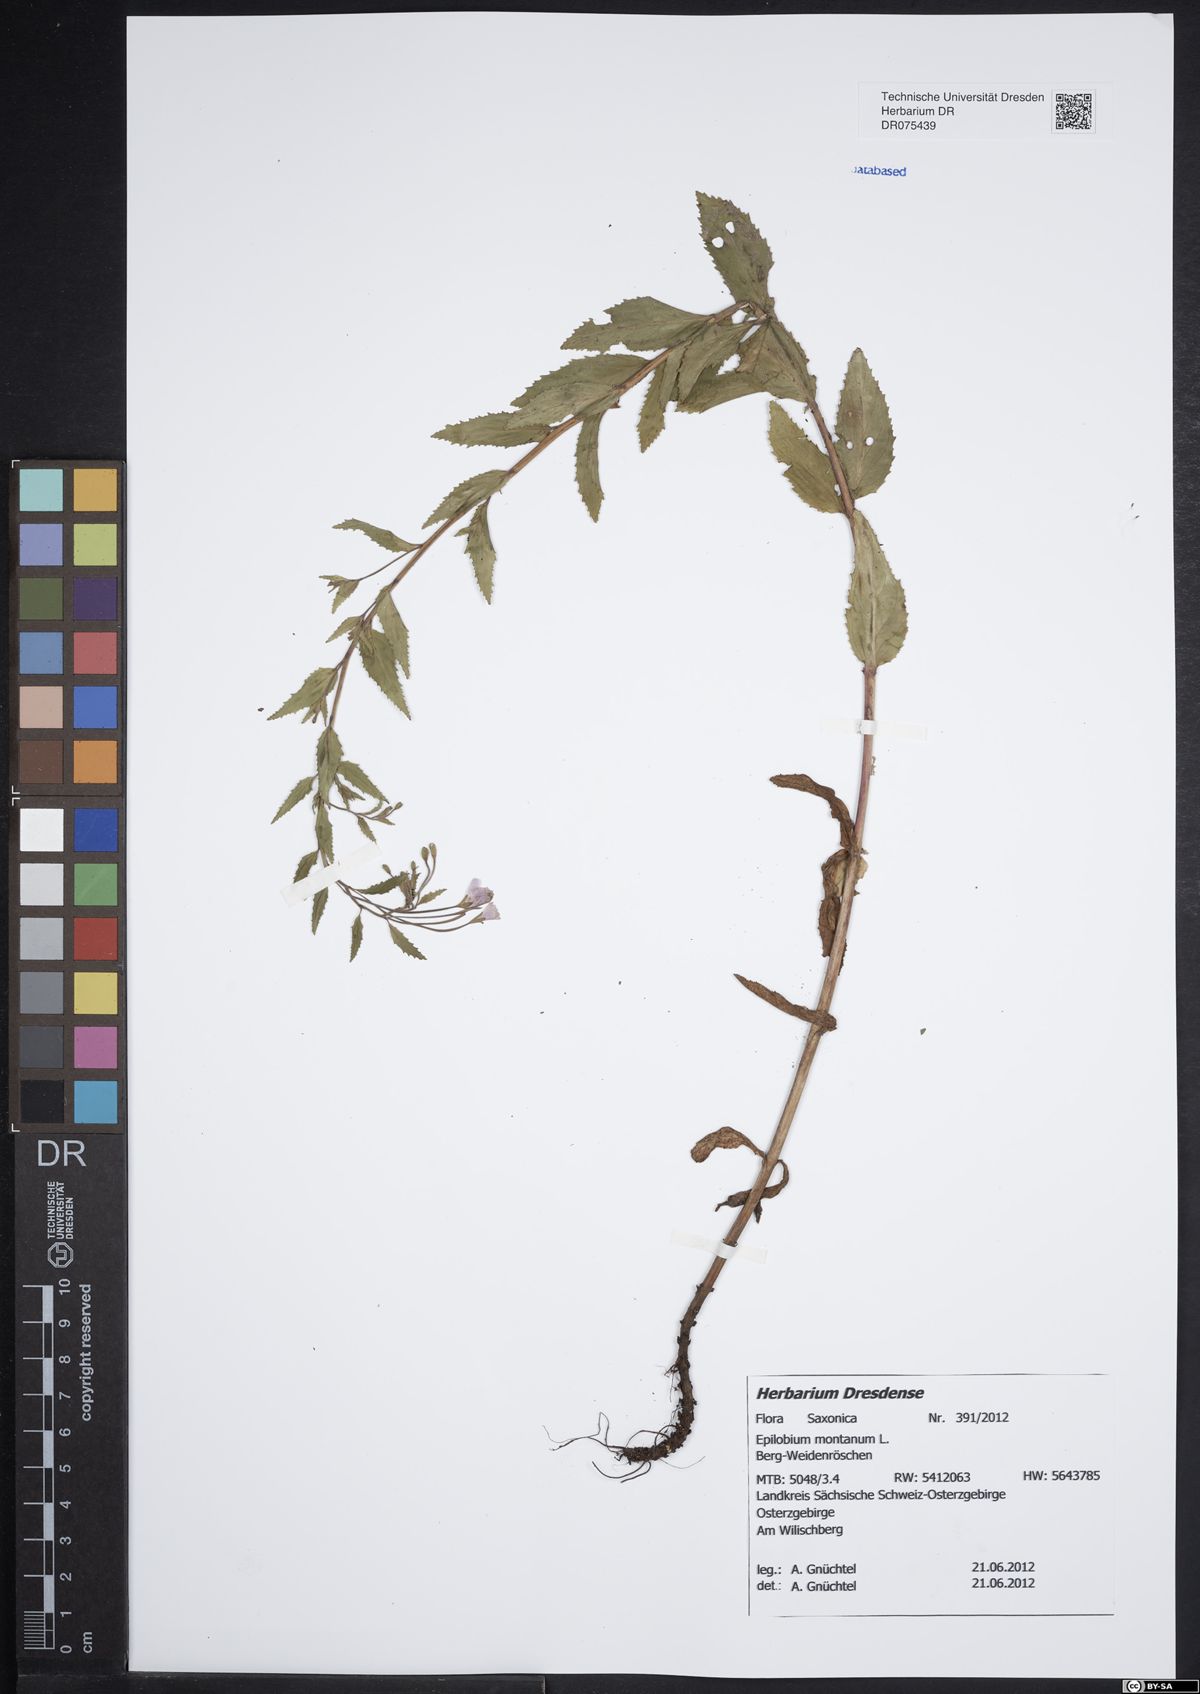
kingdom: Plantae
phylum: Tracheophyta
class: Magnoliopsida
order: Myrtales
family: Onagraceae
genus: Epilobium
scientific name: Epilobium montanum
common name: Broad-leaved willowherb
